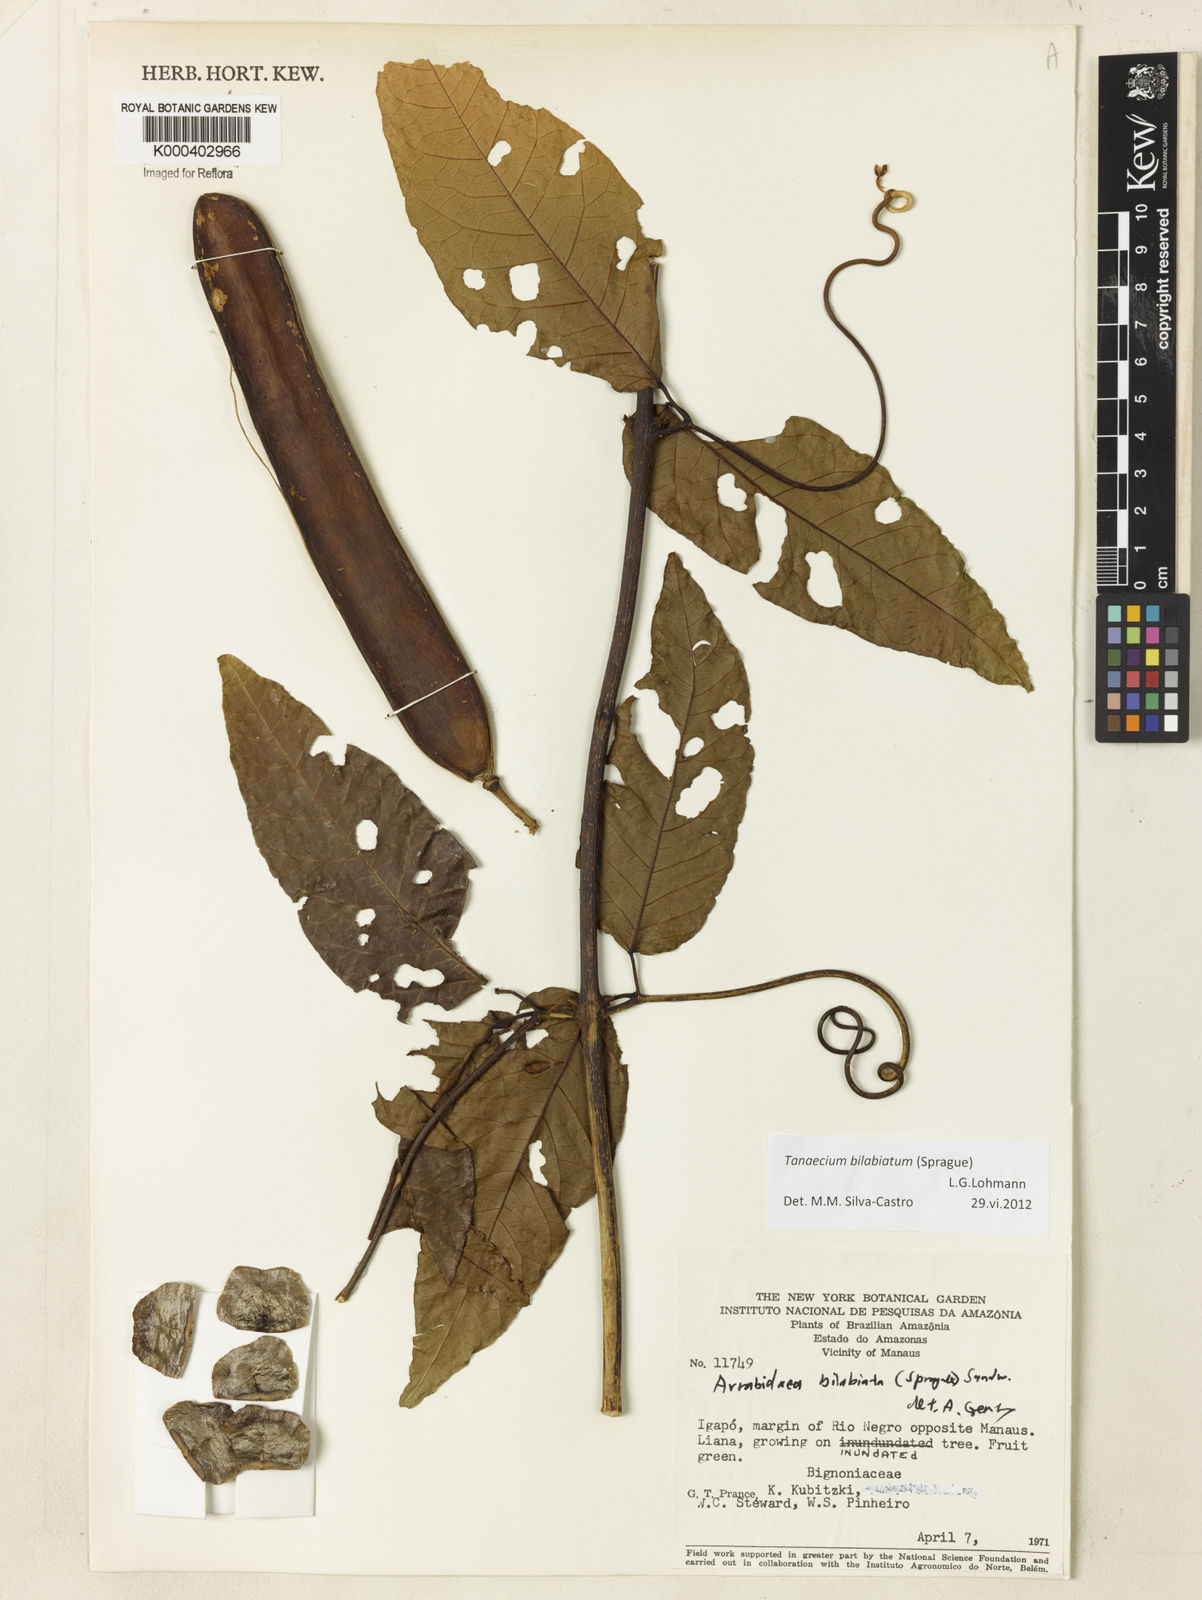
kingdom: Plantae
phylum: Tracheophyta
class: Magnoliopsida
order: Lamiales
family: Bignoniaceae
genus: Tanaecium
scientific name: Tanaecium bilabiatum
